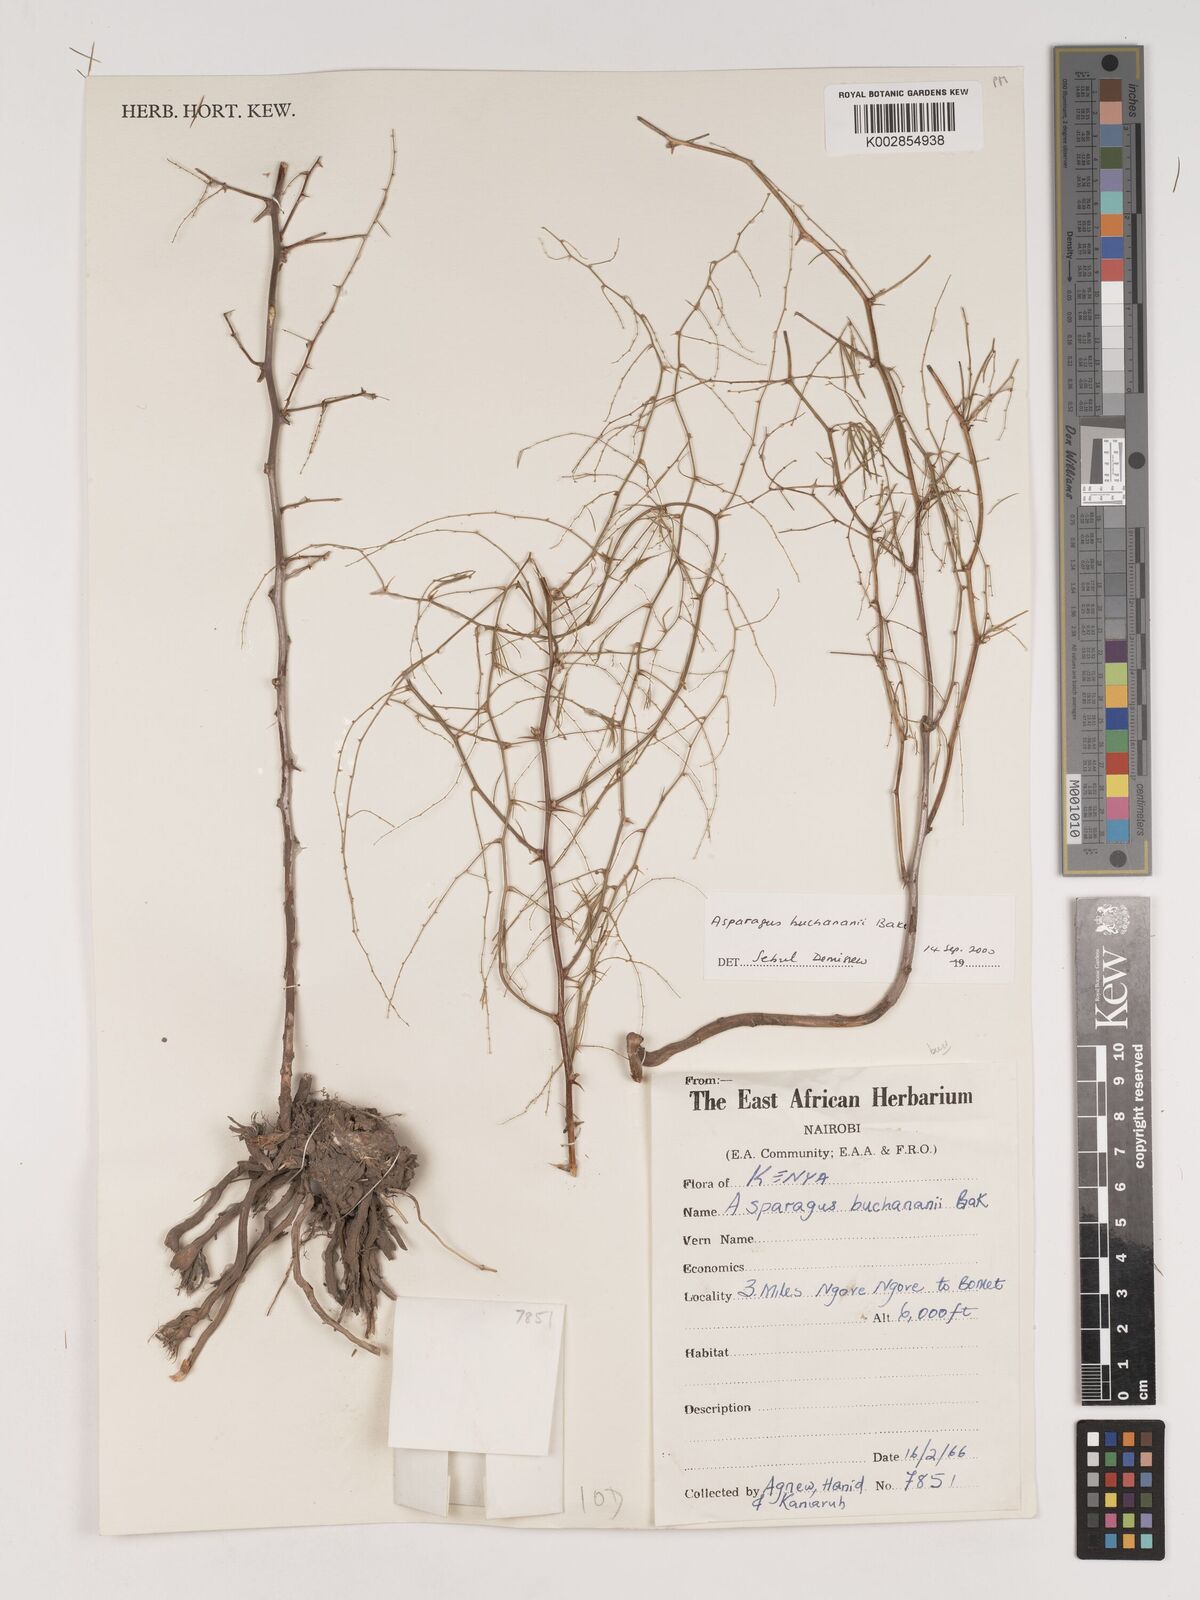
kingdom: Plantae
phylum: Tracheophyta
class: Liliopsida
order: Asparagales
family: Asparagaceae
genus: Asparagus
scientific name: Asparagus buchananii
